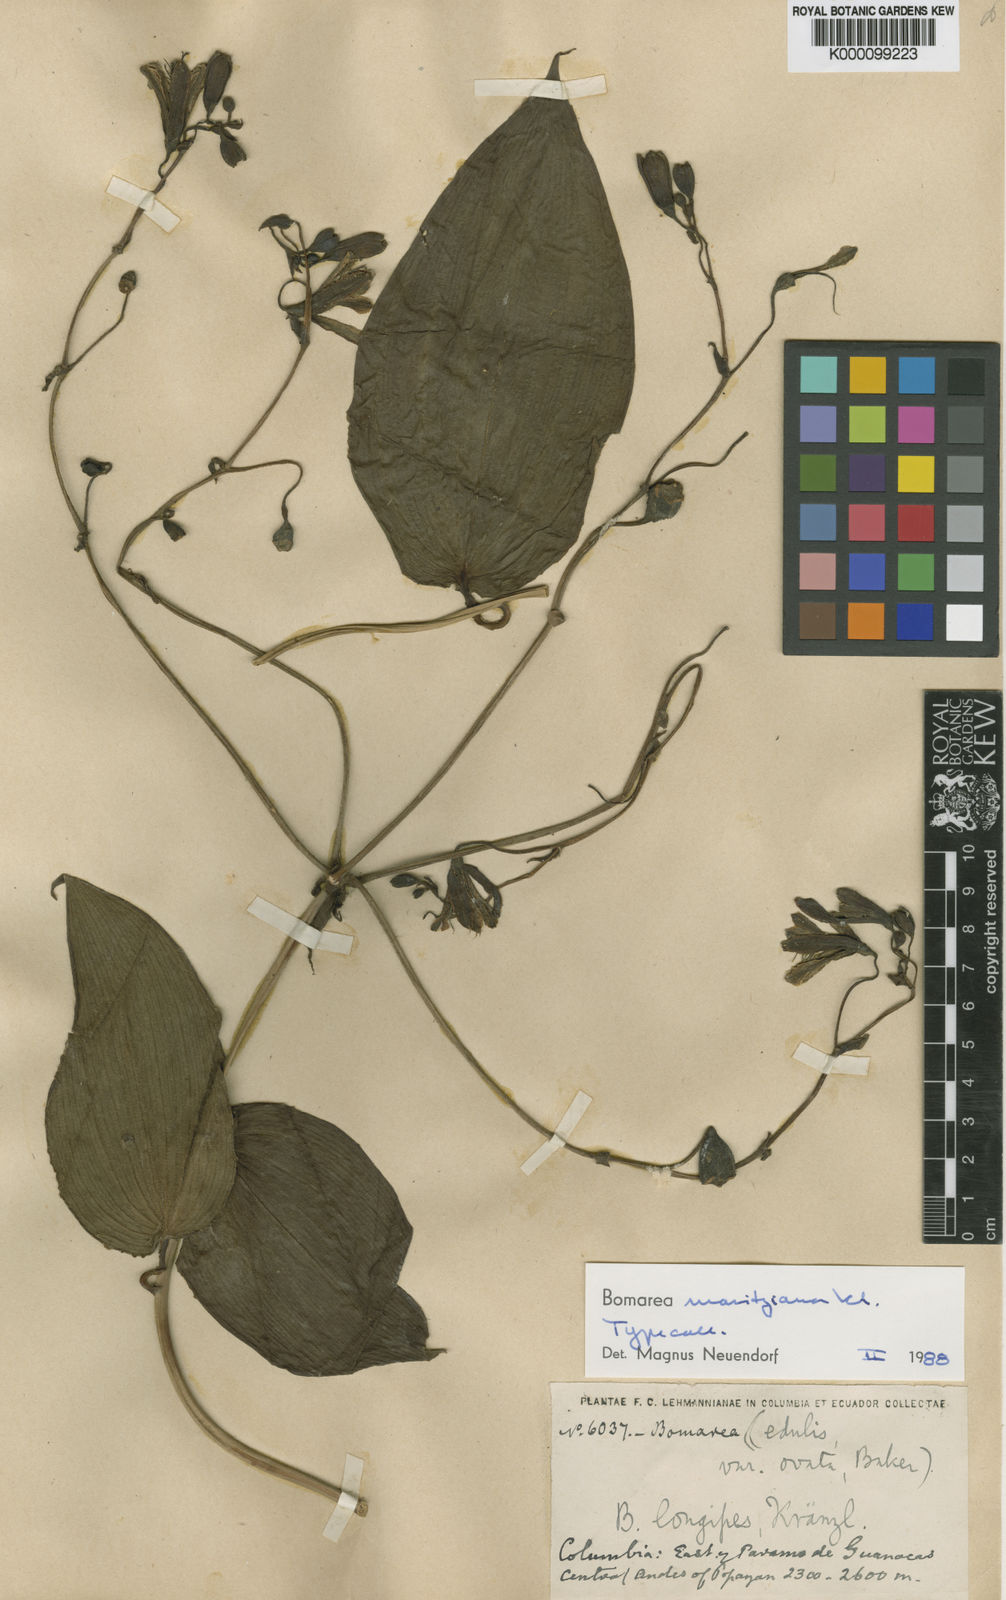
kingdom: Plantae
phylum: Tracheophyta
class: Liliopsida
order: Liliales
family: Alstroemeriaceae
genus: Bomarea
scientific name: Bomarea moritziana
